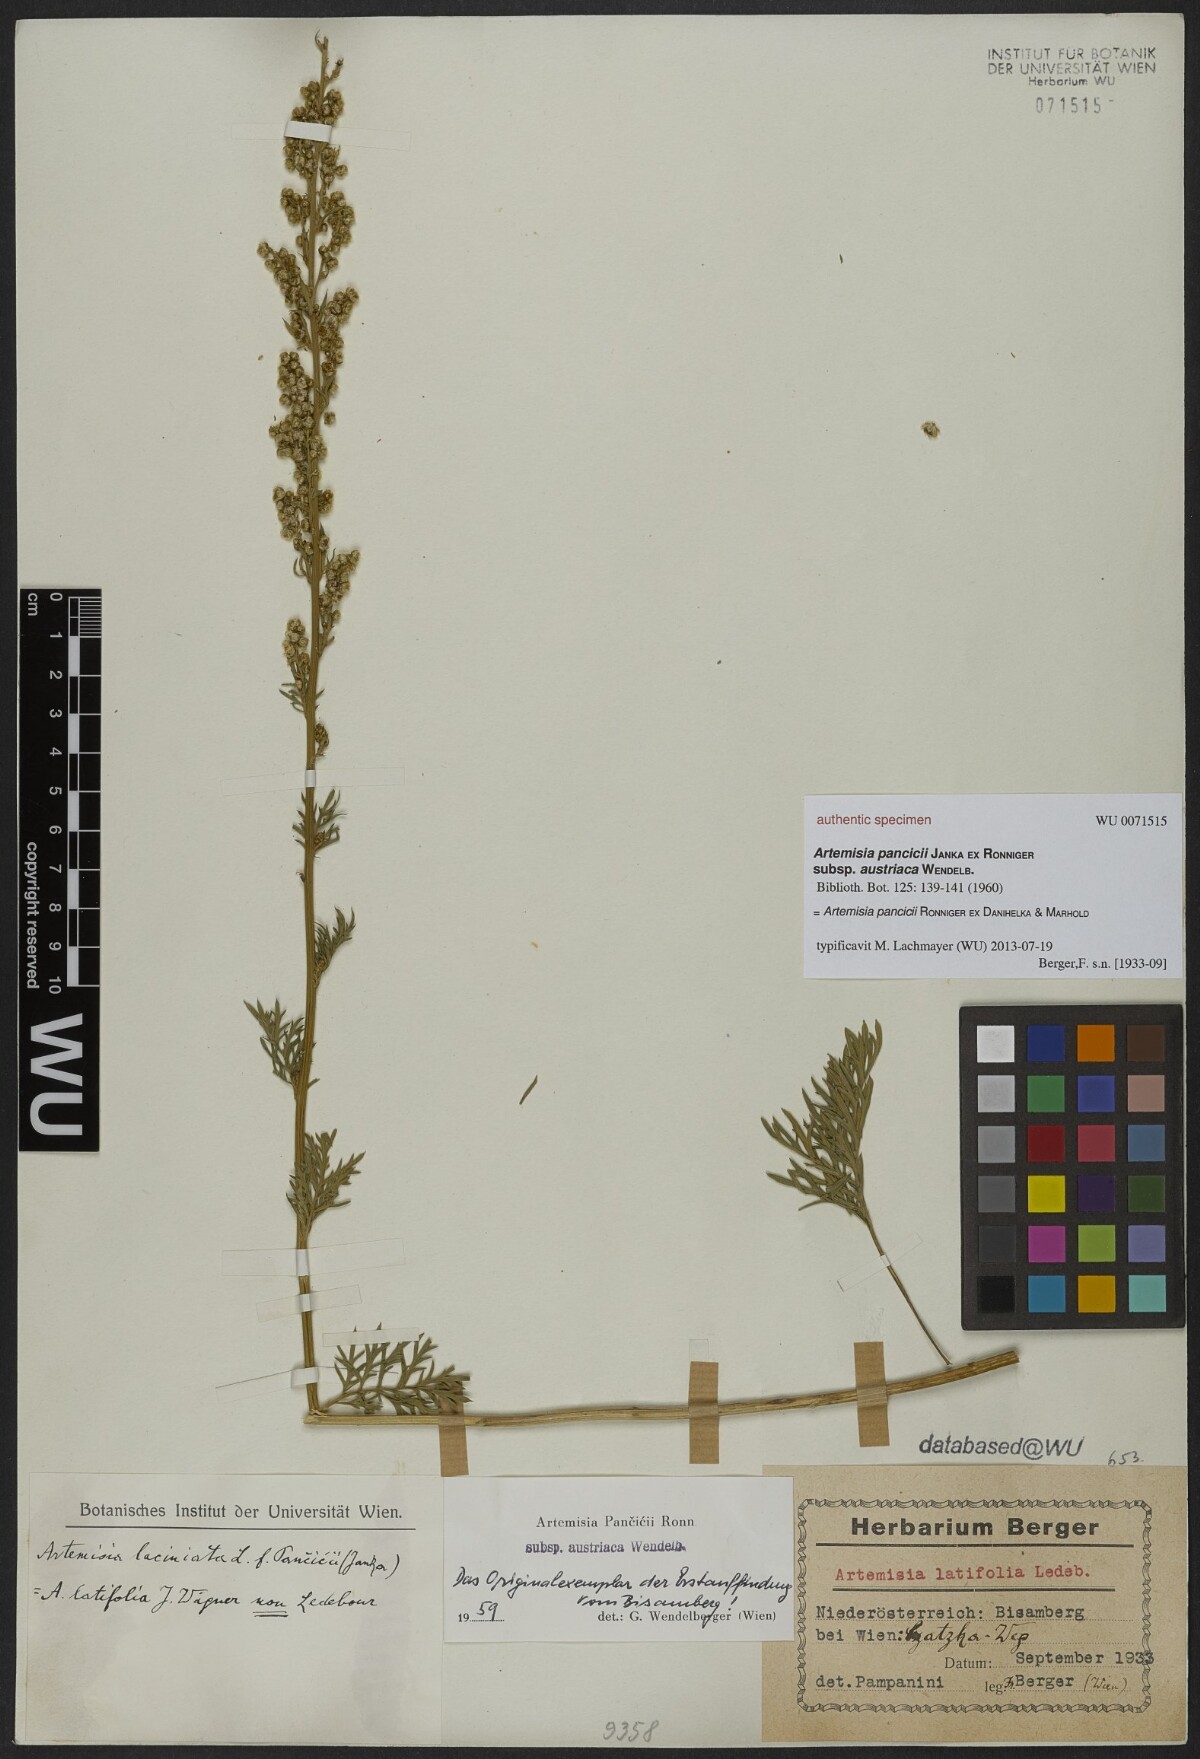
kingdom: Plantae
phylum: Tracheophyta
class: Magnoliopsida
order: Asterales
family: Asteraceae
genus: Artemisia
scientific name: Artemisia pancicii
